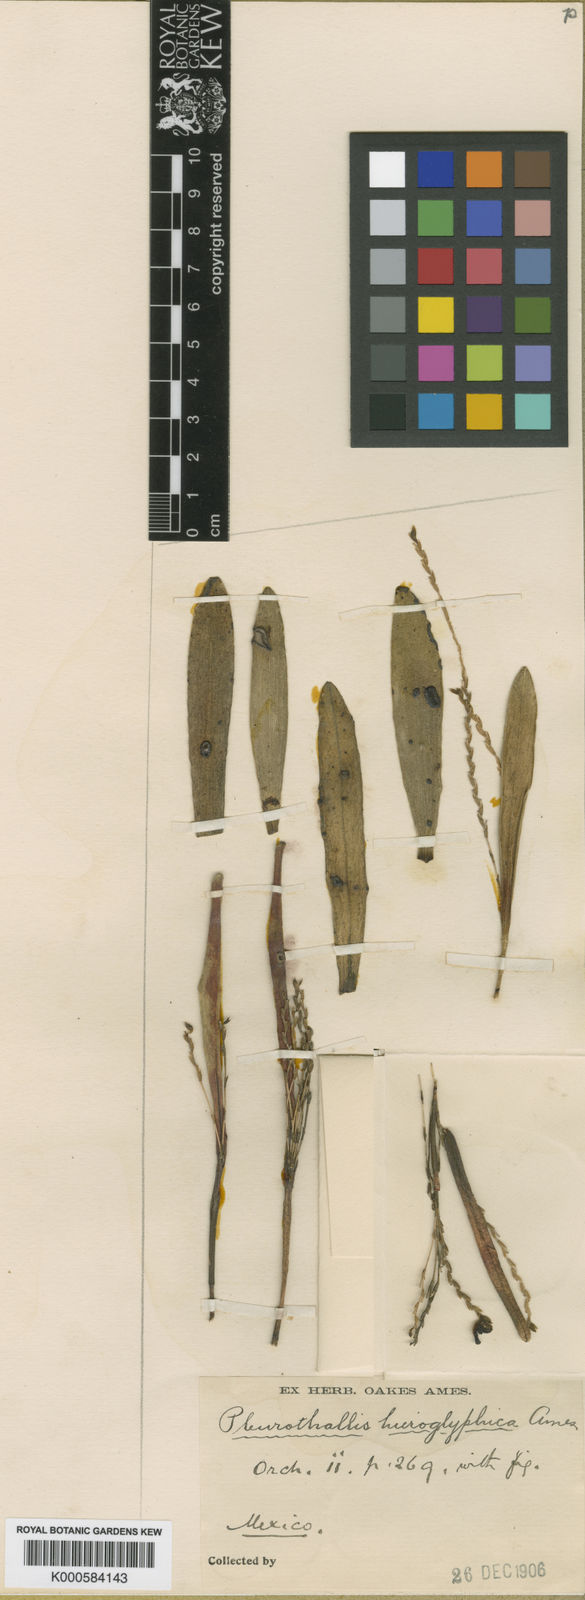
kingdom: Plantae
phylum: Tracheophyta
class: Liliopsida
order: Asparagales
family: Orchidaceae
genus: Stelis
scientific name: Stelis retusa
